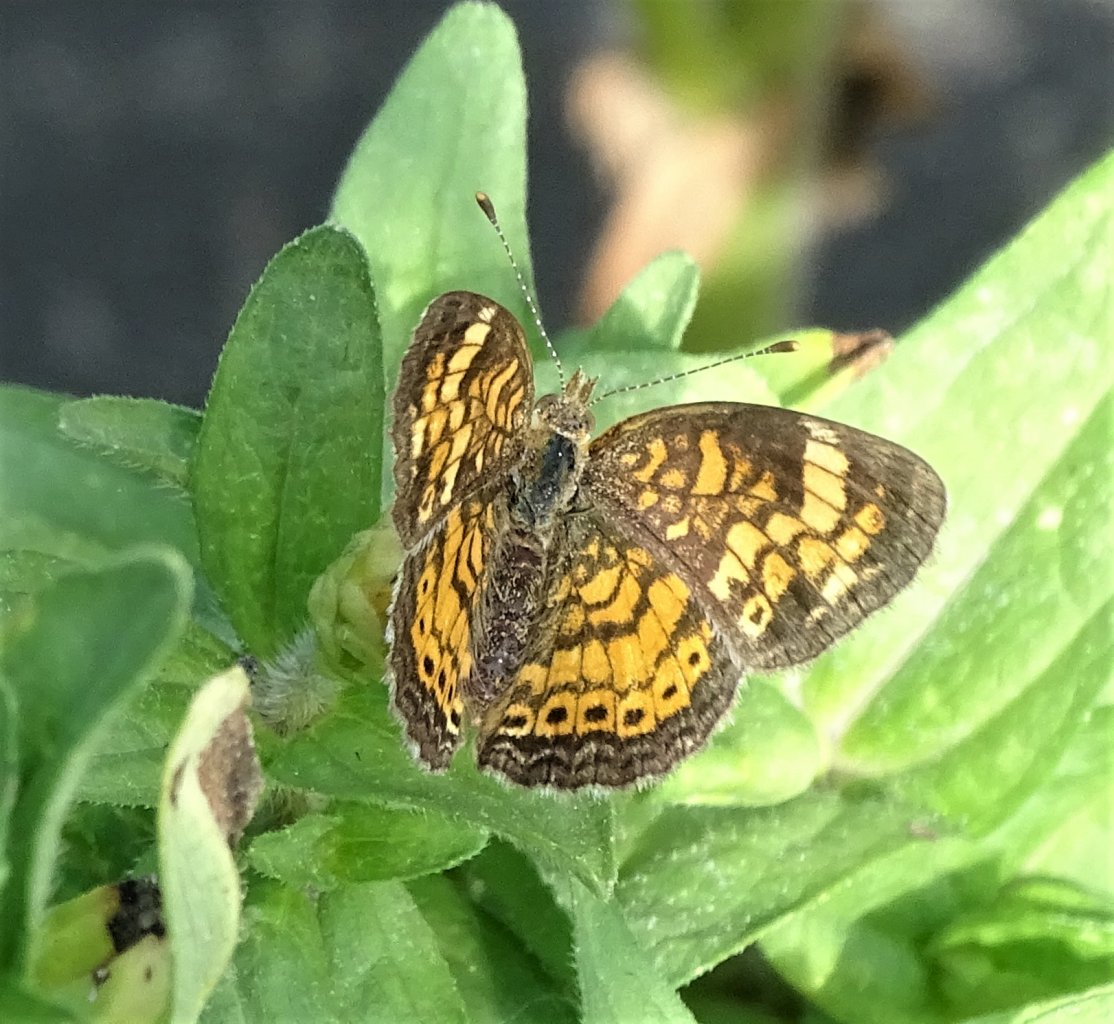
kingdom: Animalia
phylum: Arthropoda
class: Insecta
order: Lepidoptera
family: Nymphalidae
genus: Phyciodes
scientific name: Phyciodes tharos
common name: Pearl Crescent
